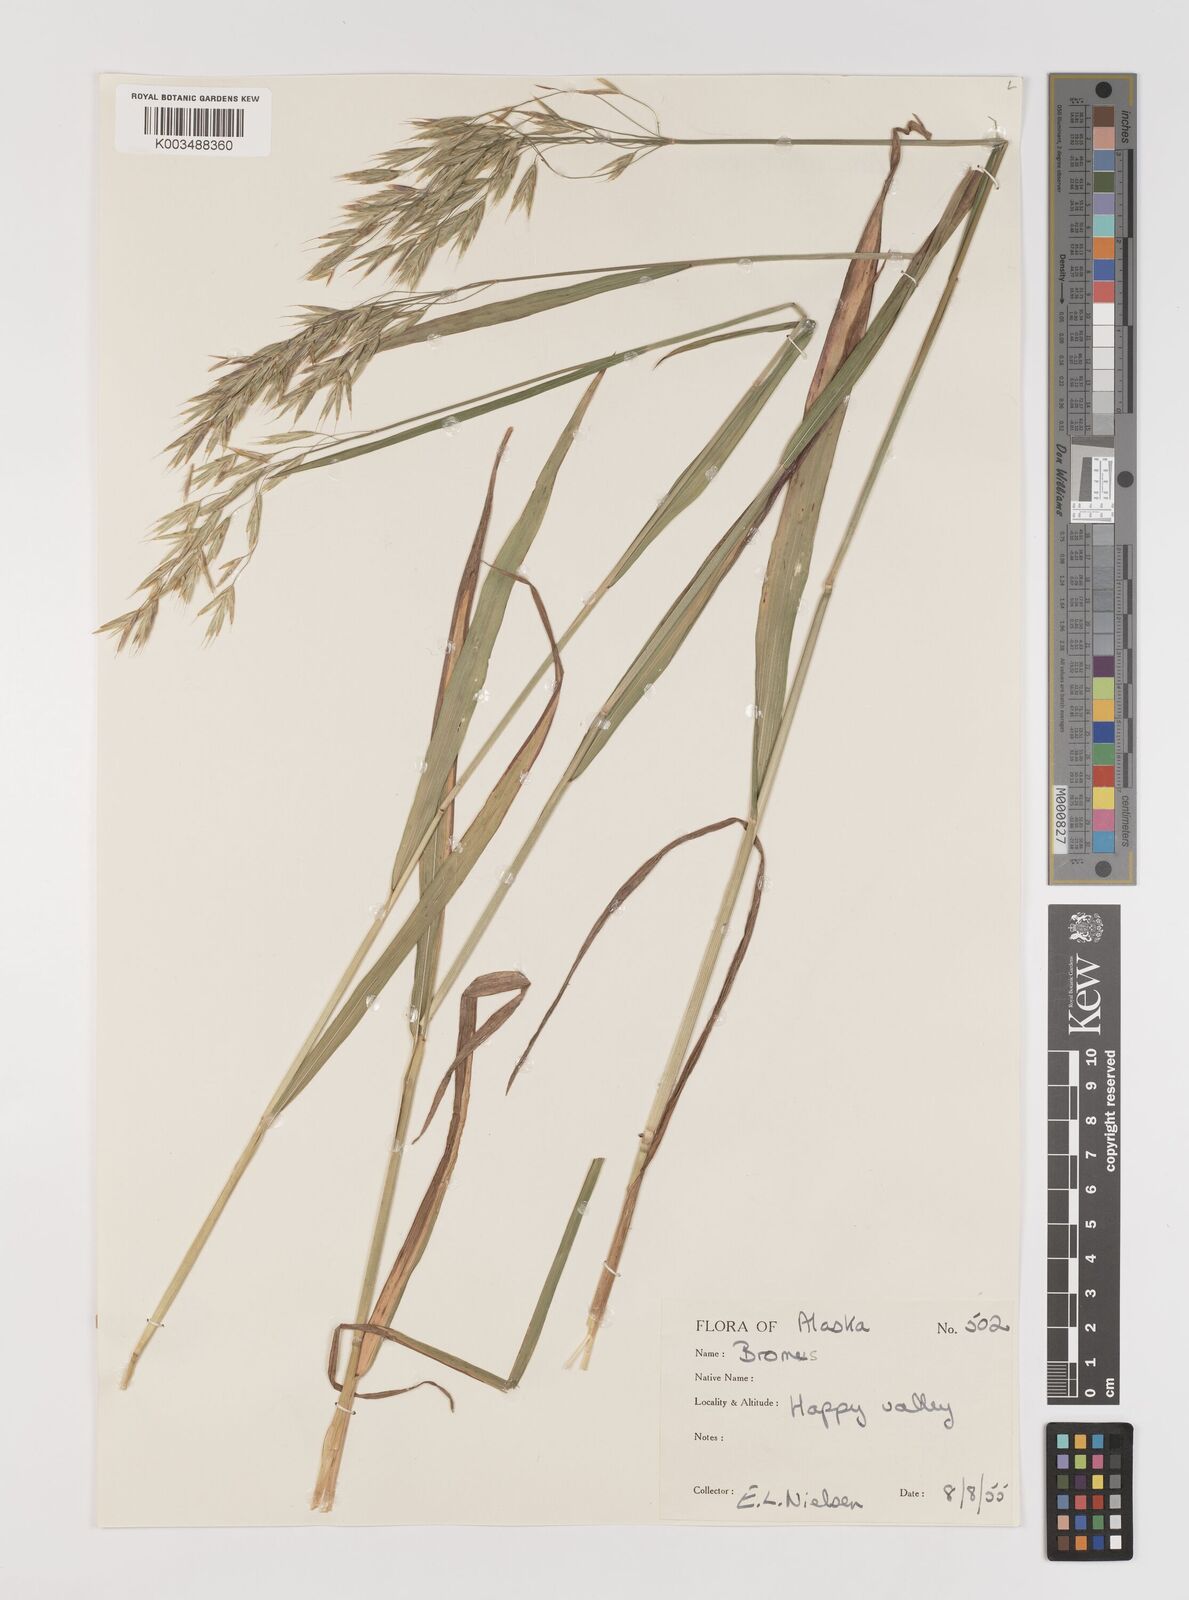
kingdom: Plantae
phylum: Tracheophyta
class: Liliopsida
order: Poales
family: Poaceae
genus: Bromus
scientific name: Bromus ciliatus
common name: Fringe brome
